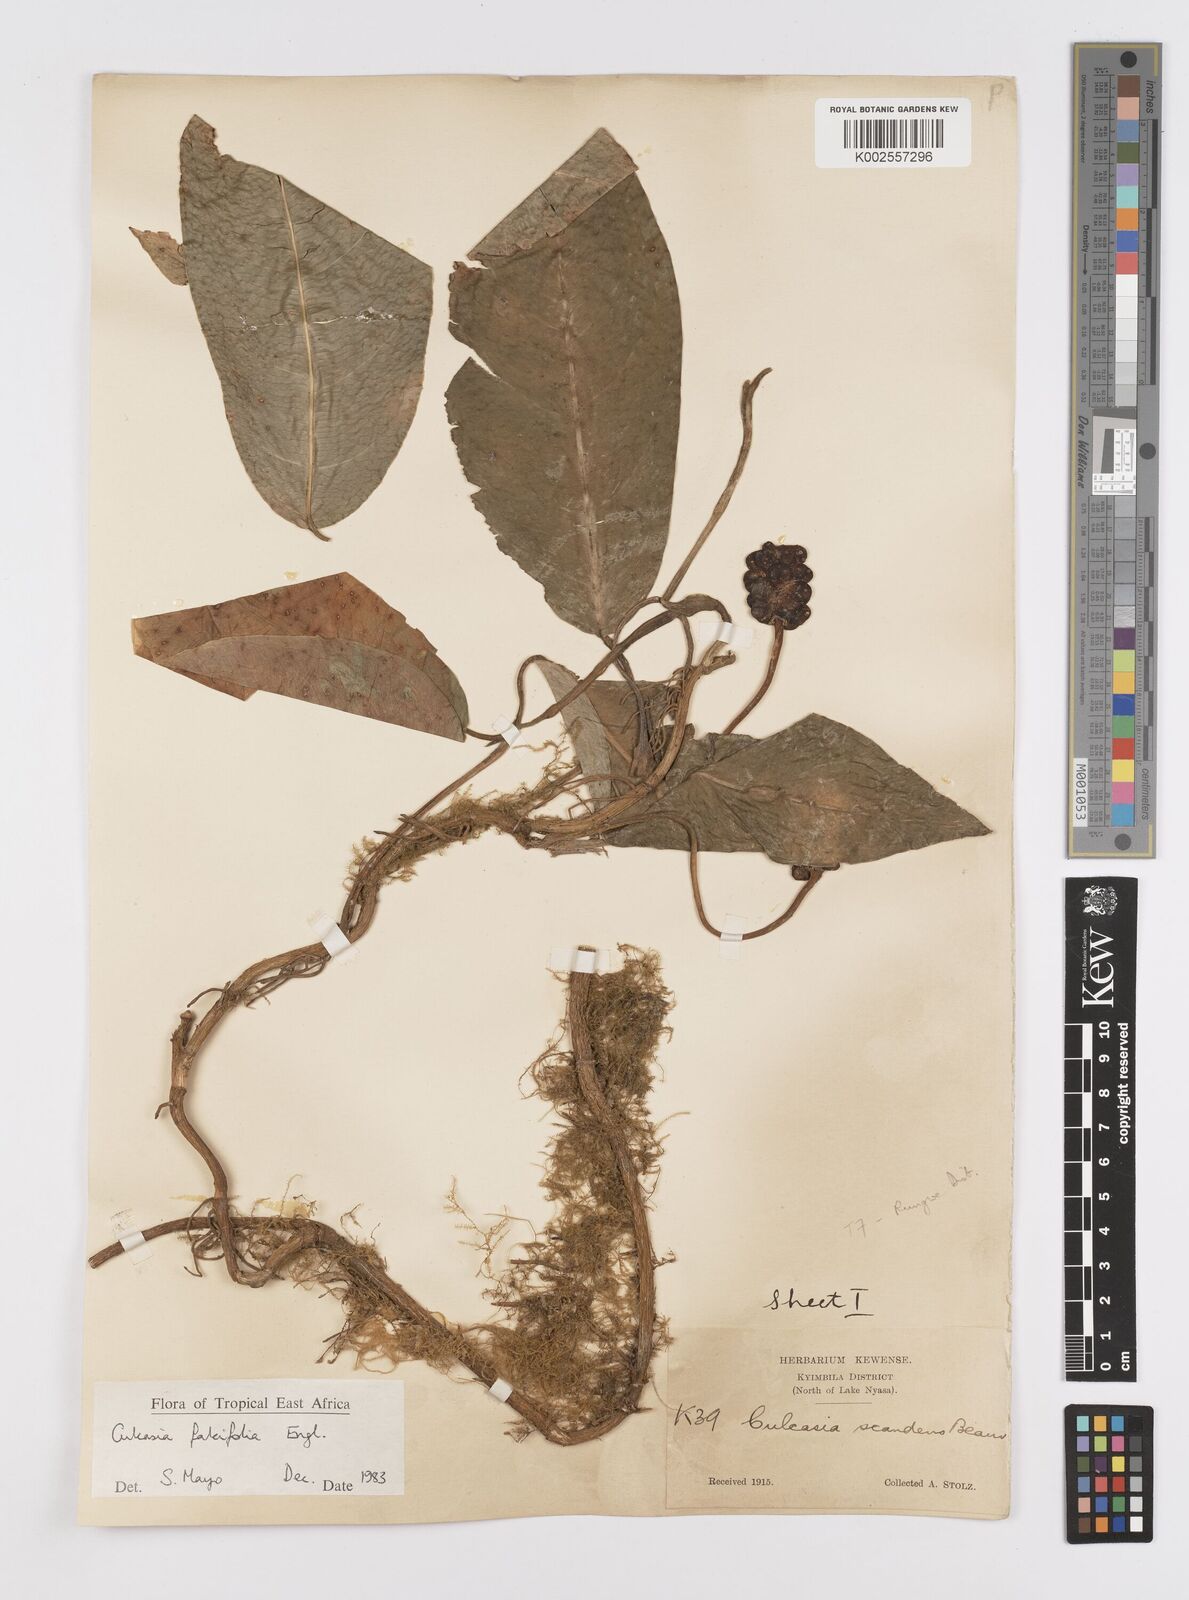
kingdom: Plantae
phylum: Tracheophyta
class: Liliopsida
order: Alismatales
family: Araceae
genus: Culcasia
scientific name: Culcasia falcifolia
